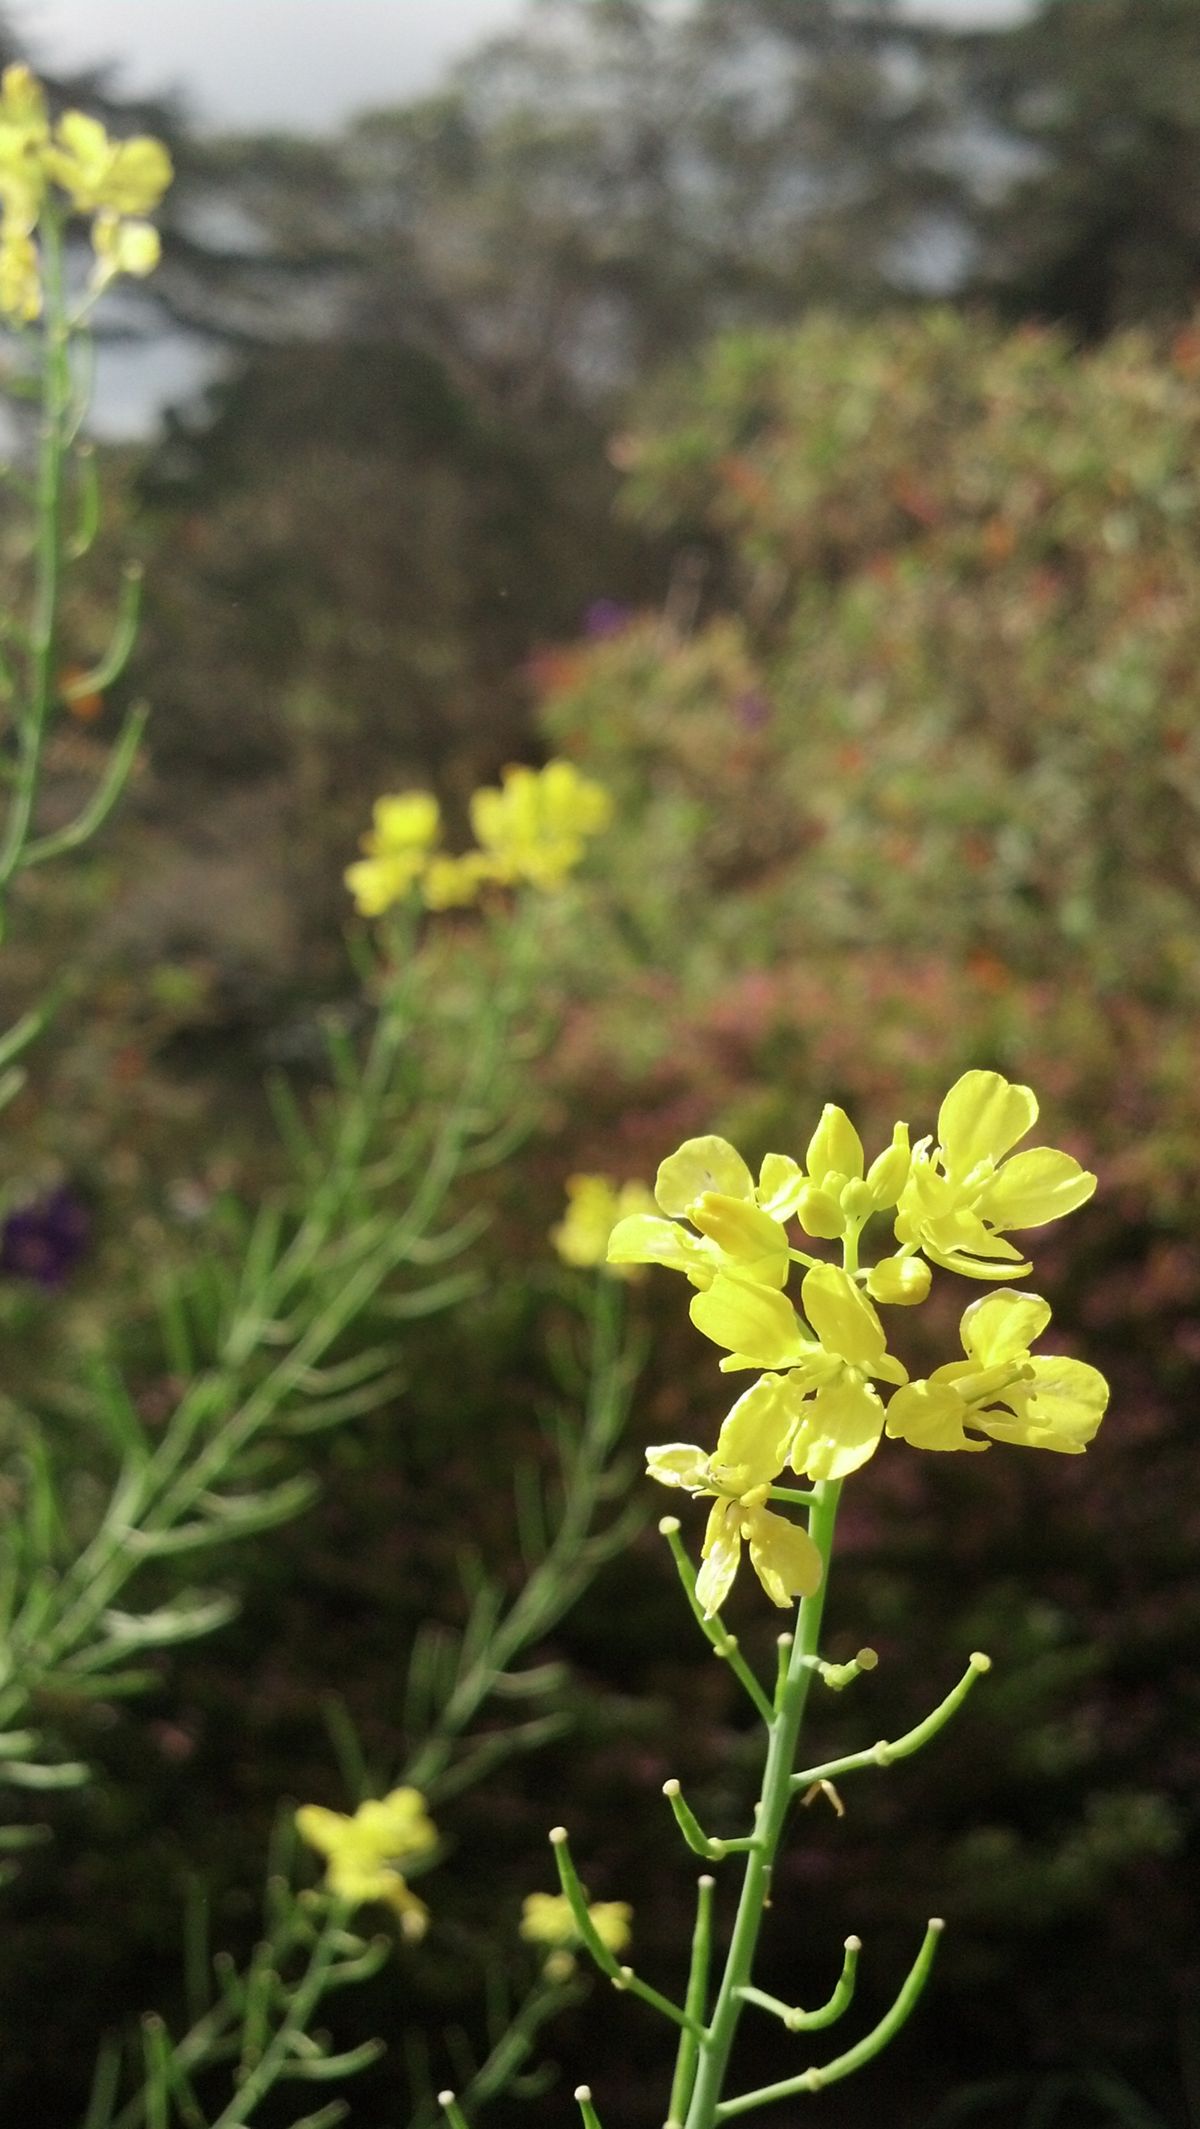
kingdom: Plantae
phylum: Tracheophyta
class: Magnoliopsida
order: Brassicales
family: Brassicaceae
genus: Brassica
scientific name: Brassica juncea
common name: Brown mustard
